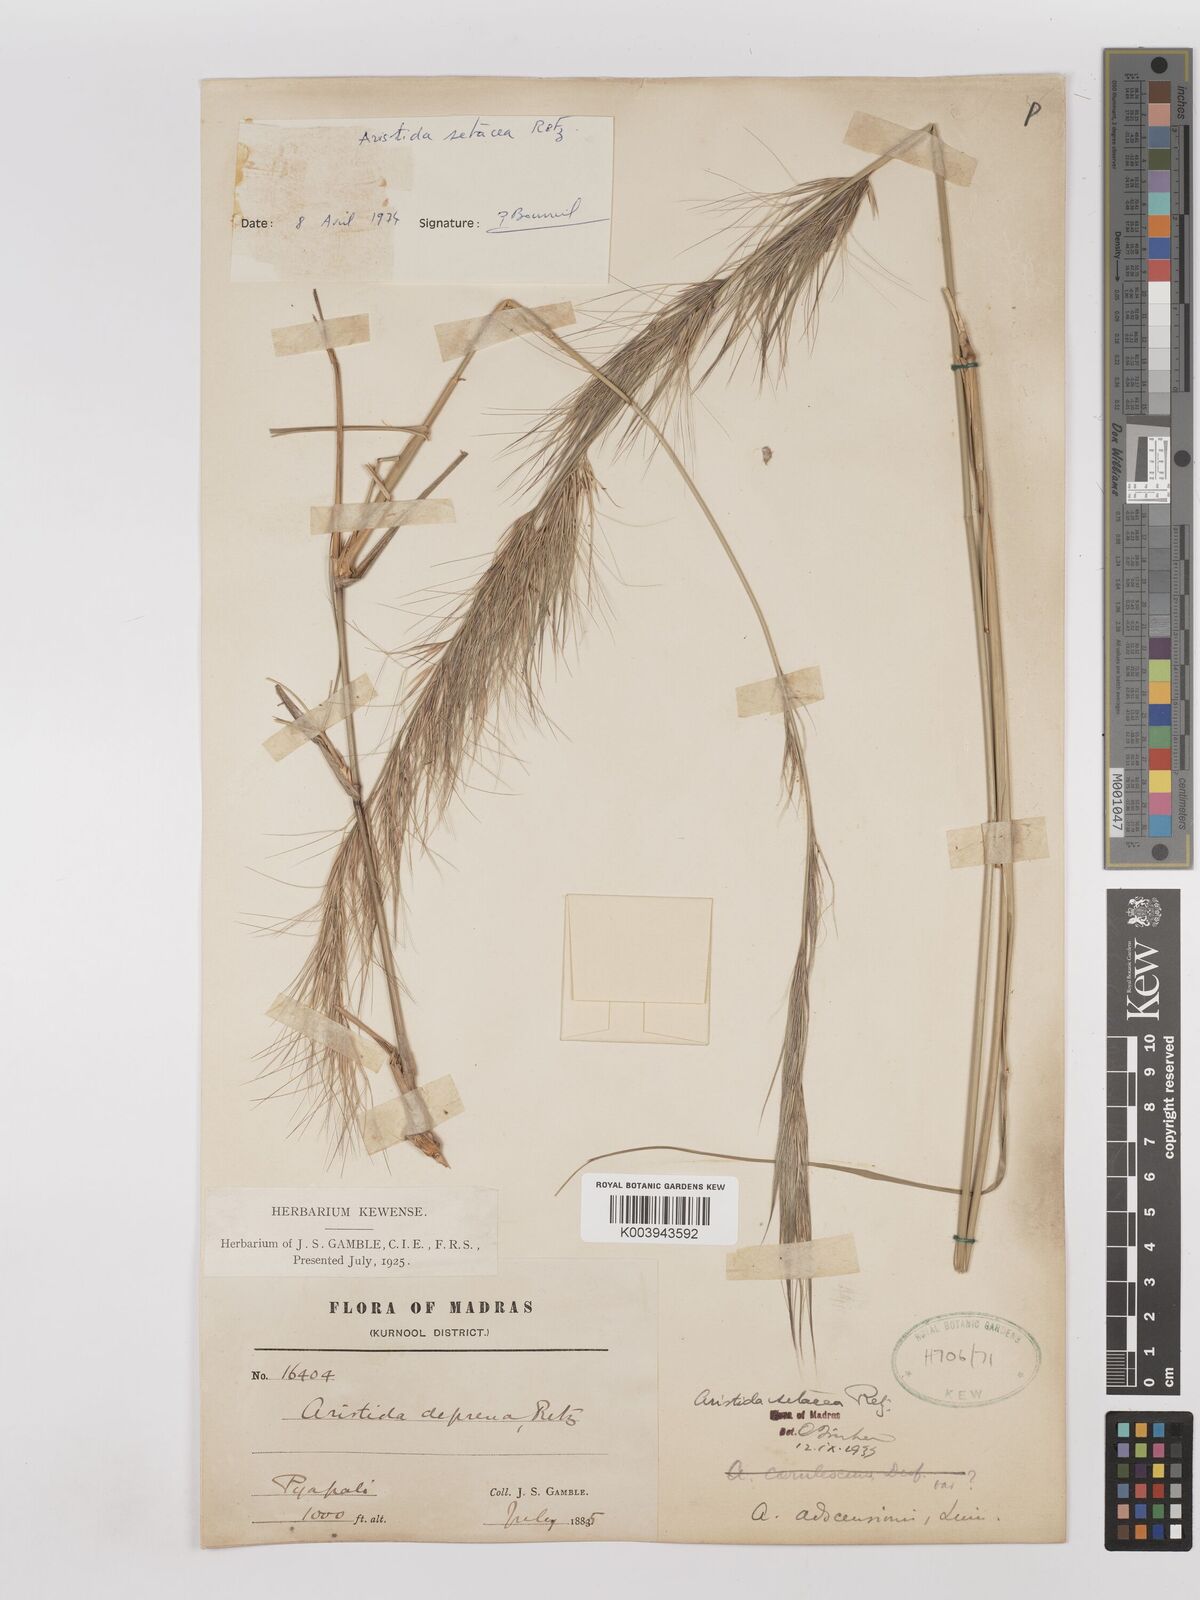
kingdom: Plantae
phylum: Tracheophyta
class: Liliopsida
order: Poales
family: Poaceae
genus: Aristida
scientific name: Aristida setacea
